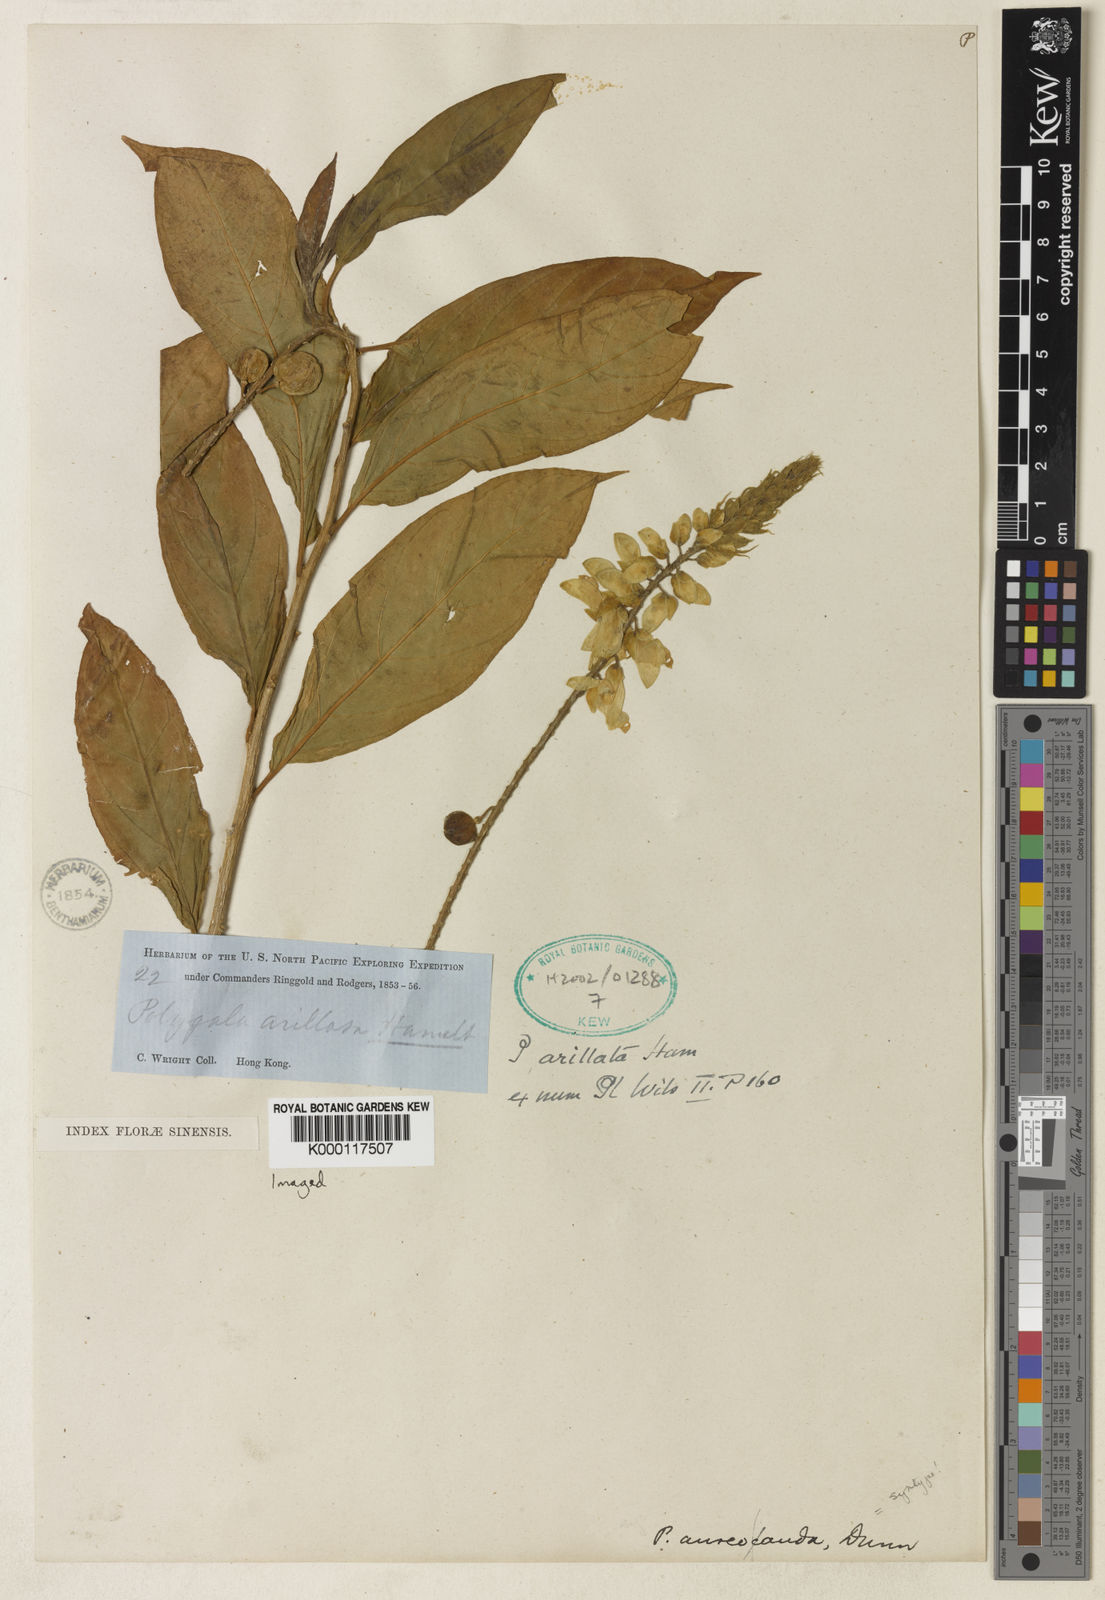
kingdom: Plantae
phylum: Tracheophyta
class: Magnoliopsida
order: Fabales
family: Polygalaceae
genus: Polygala
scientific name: Polygala forbesii
